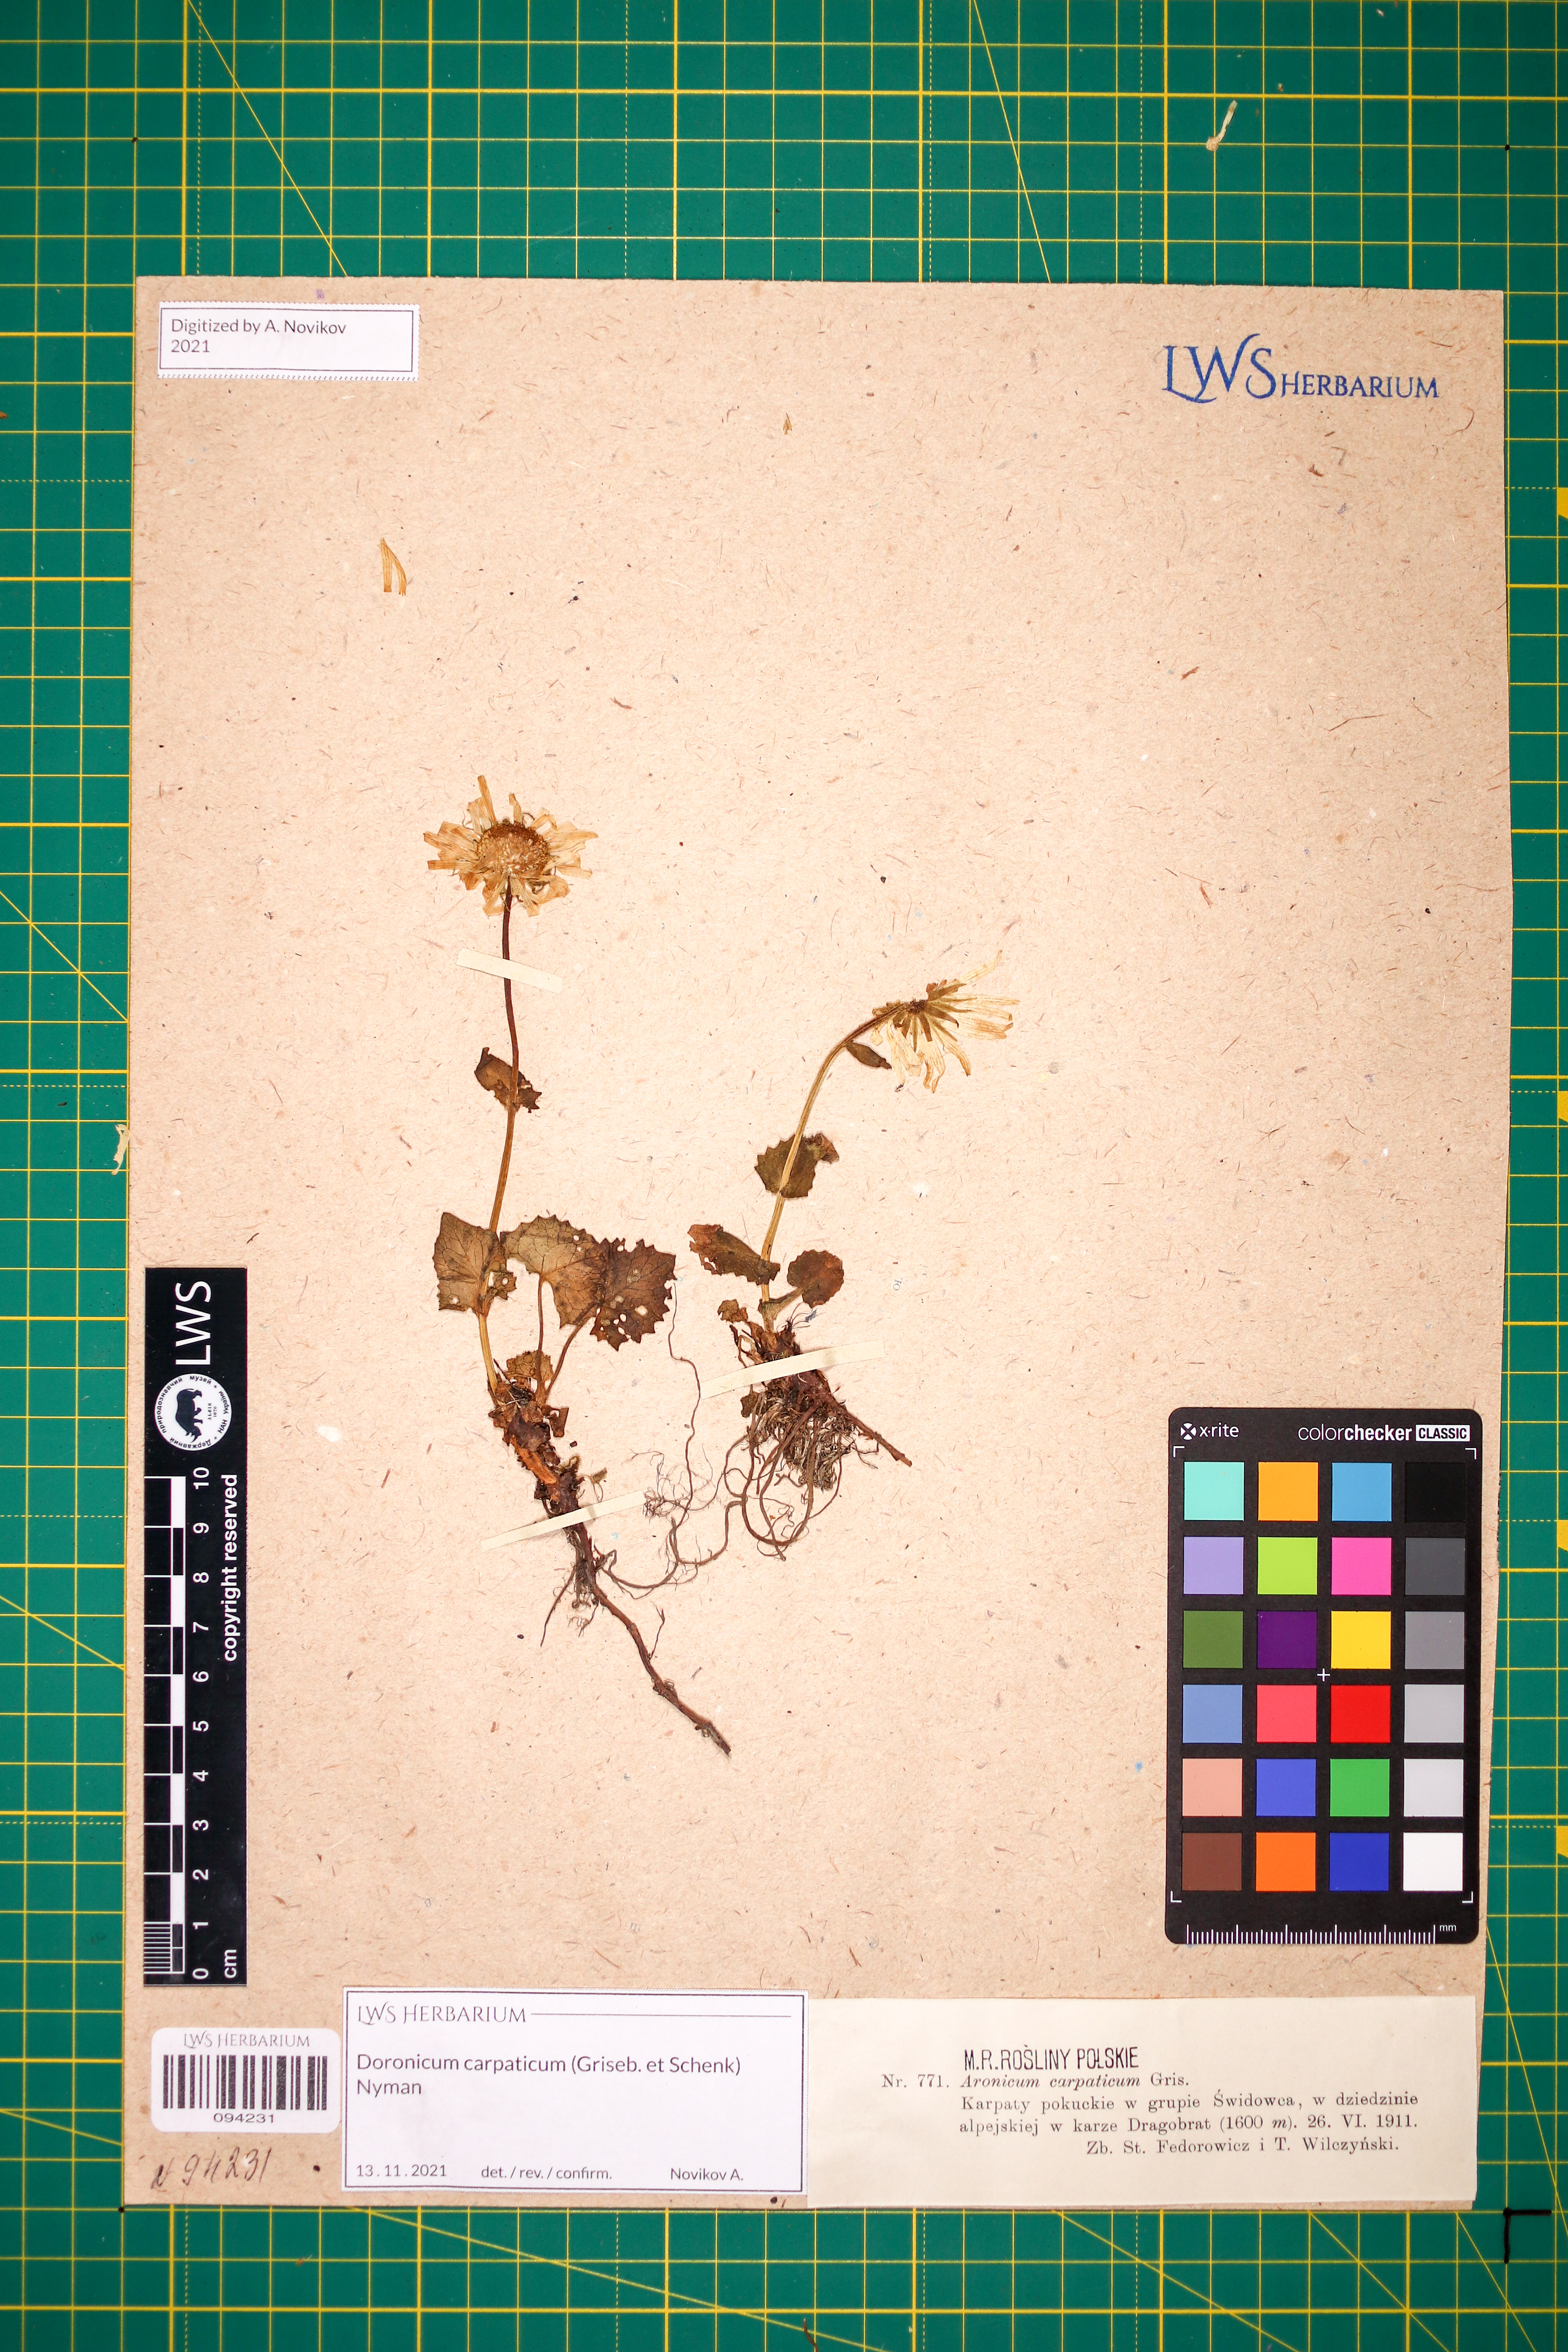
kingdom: Plantae
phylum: Tracheophyta
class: Magnoliopsida
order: Asterales
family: Asteraceae
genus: Doronicum
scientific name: Doronicum carpaticum
